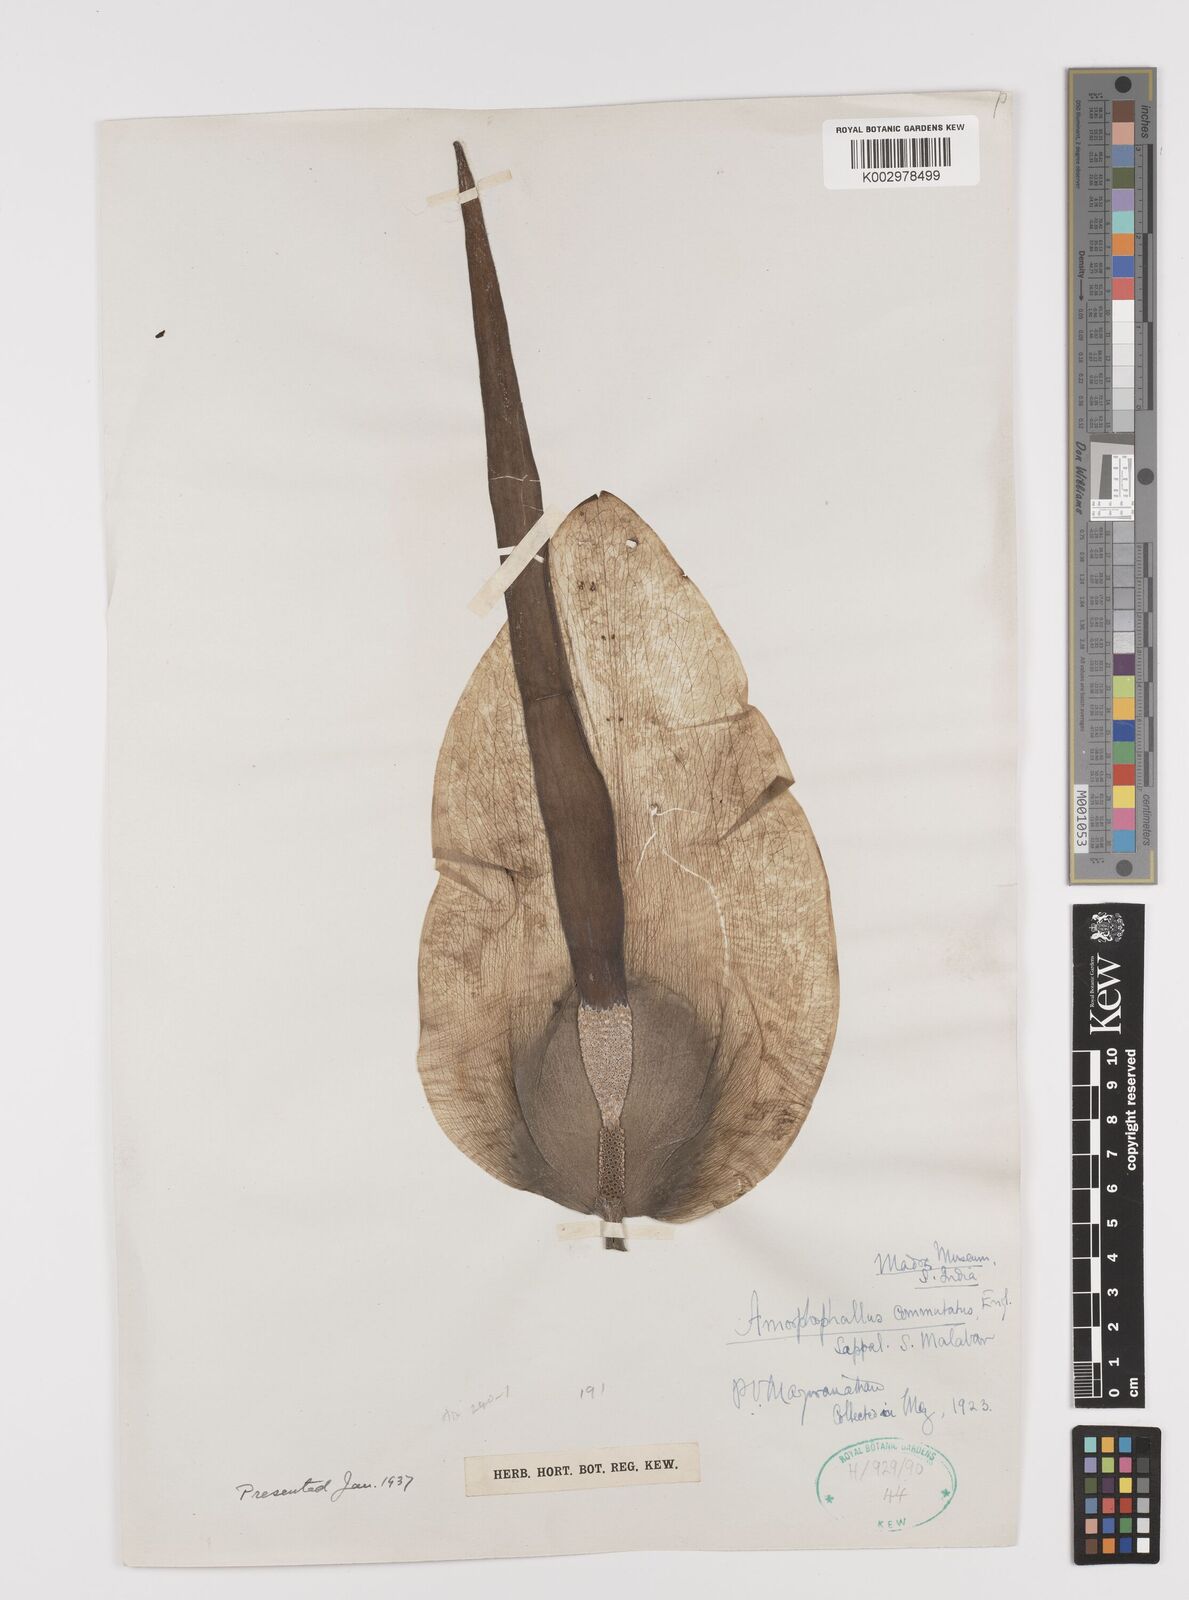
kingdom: Plantae
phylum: Tracheophyta
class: Liliopsida
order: Alismatales
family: Araceae
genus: Amorphophallus
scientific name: Amorphophallus commutatus
